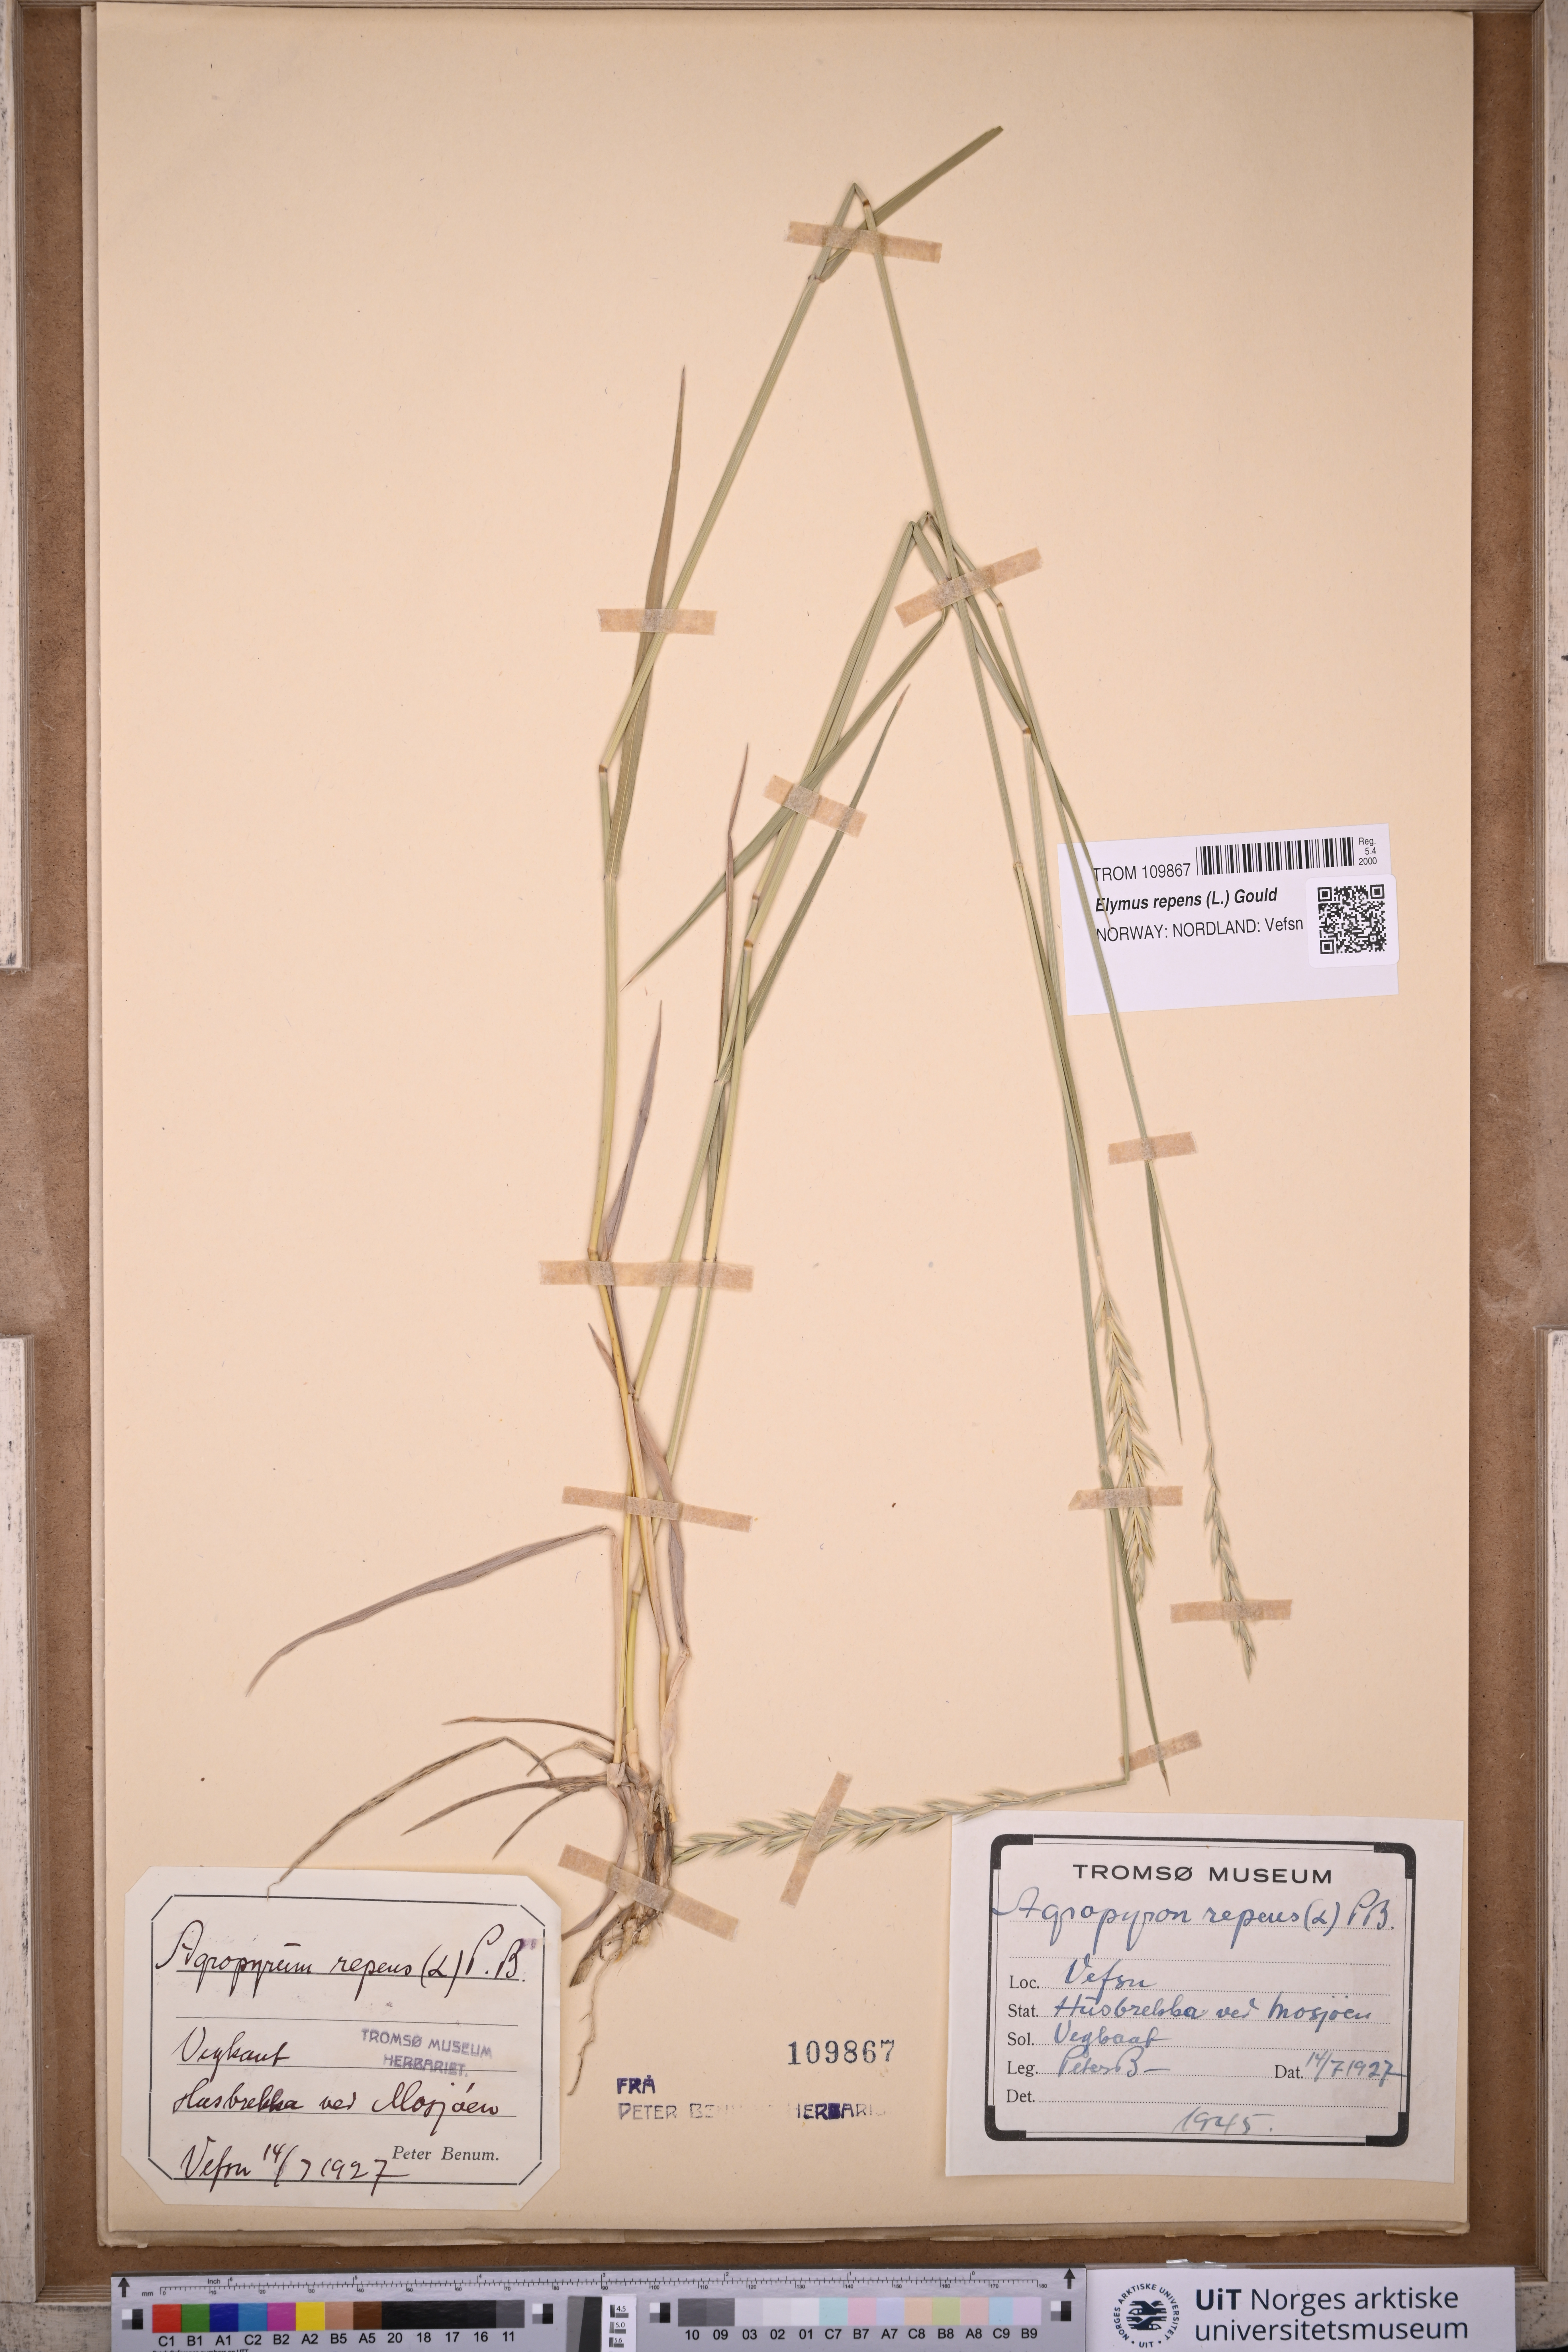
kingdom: Plantae
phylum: Tracheophyta
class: Liliopsida
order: Poales
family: Poaceae
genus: Elymus
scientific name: Elymus repens
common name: Quackgrass
